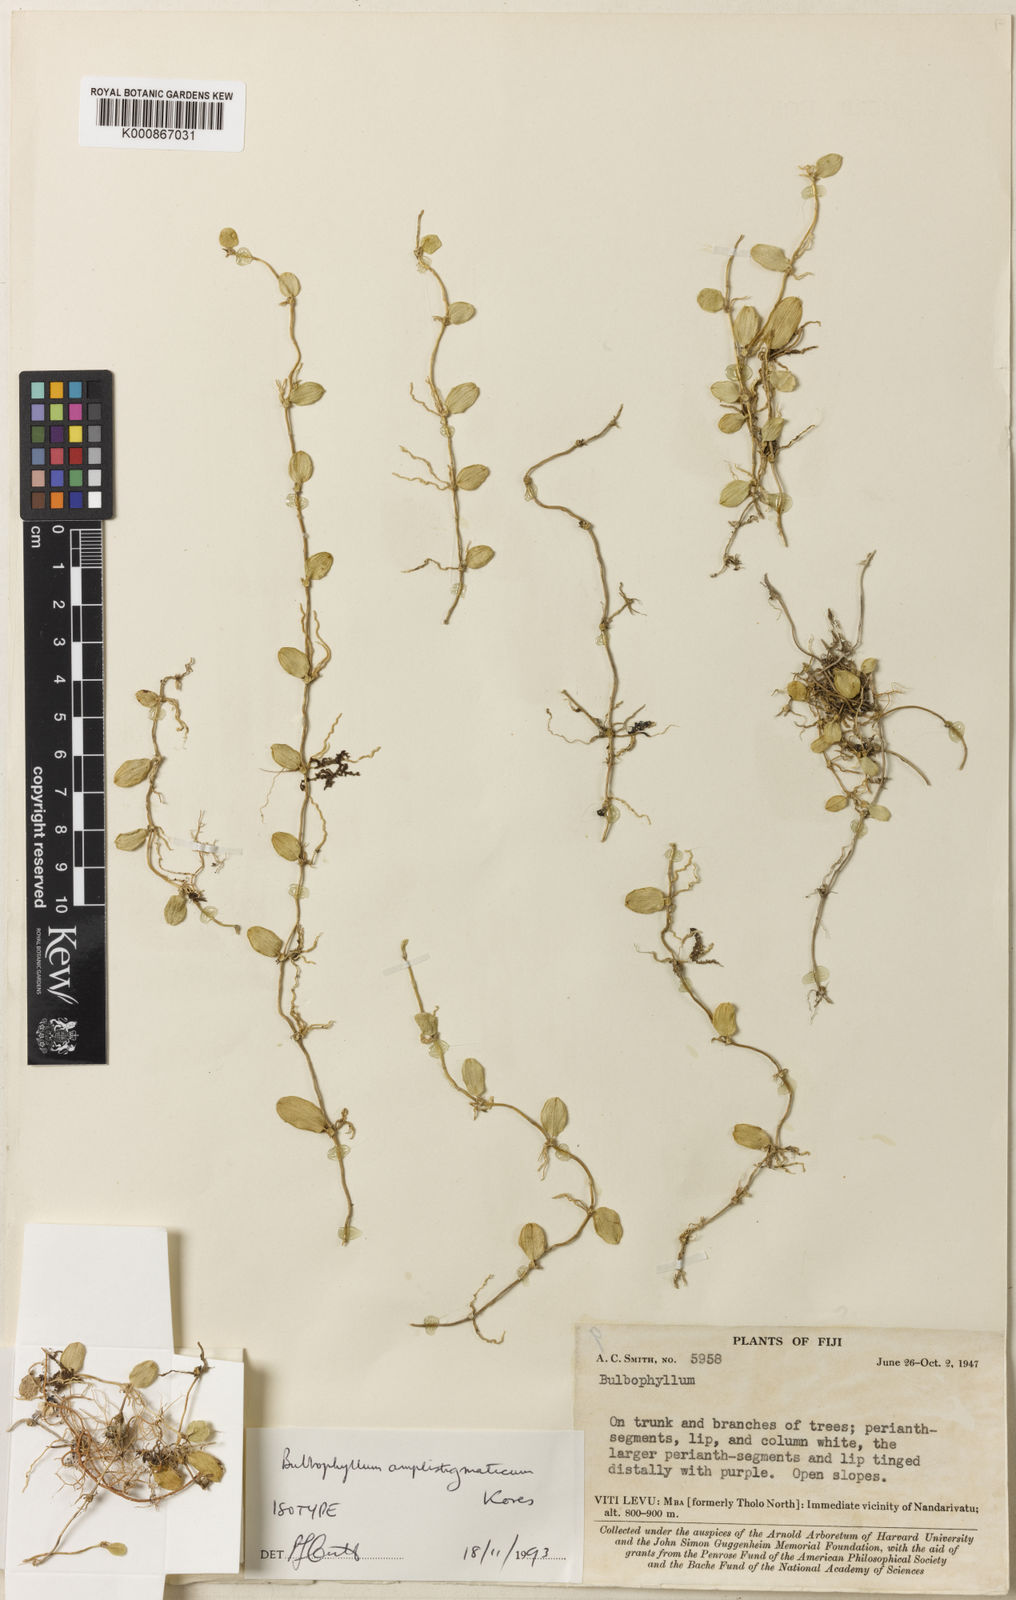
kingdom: Plantae
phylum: Tracheophyta
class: Liliopsida
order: Asparagales
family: Orchidaceae
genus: Bulbophyllum
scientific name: Bulbophyllum amplistigmaticum
